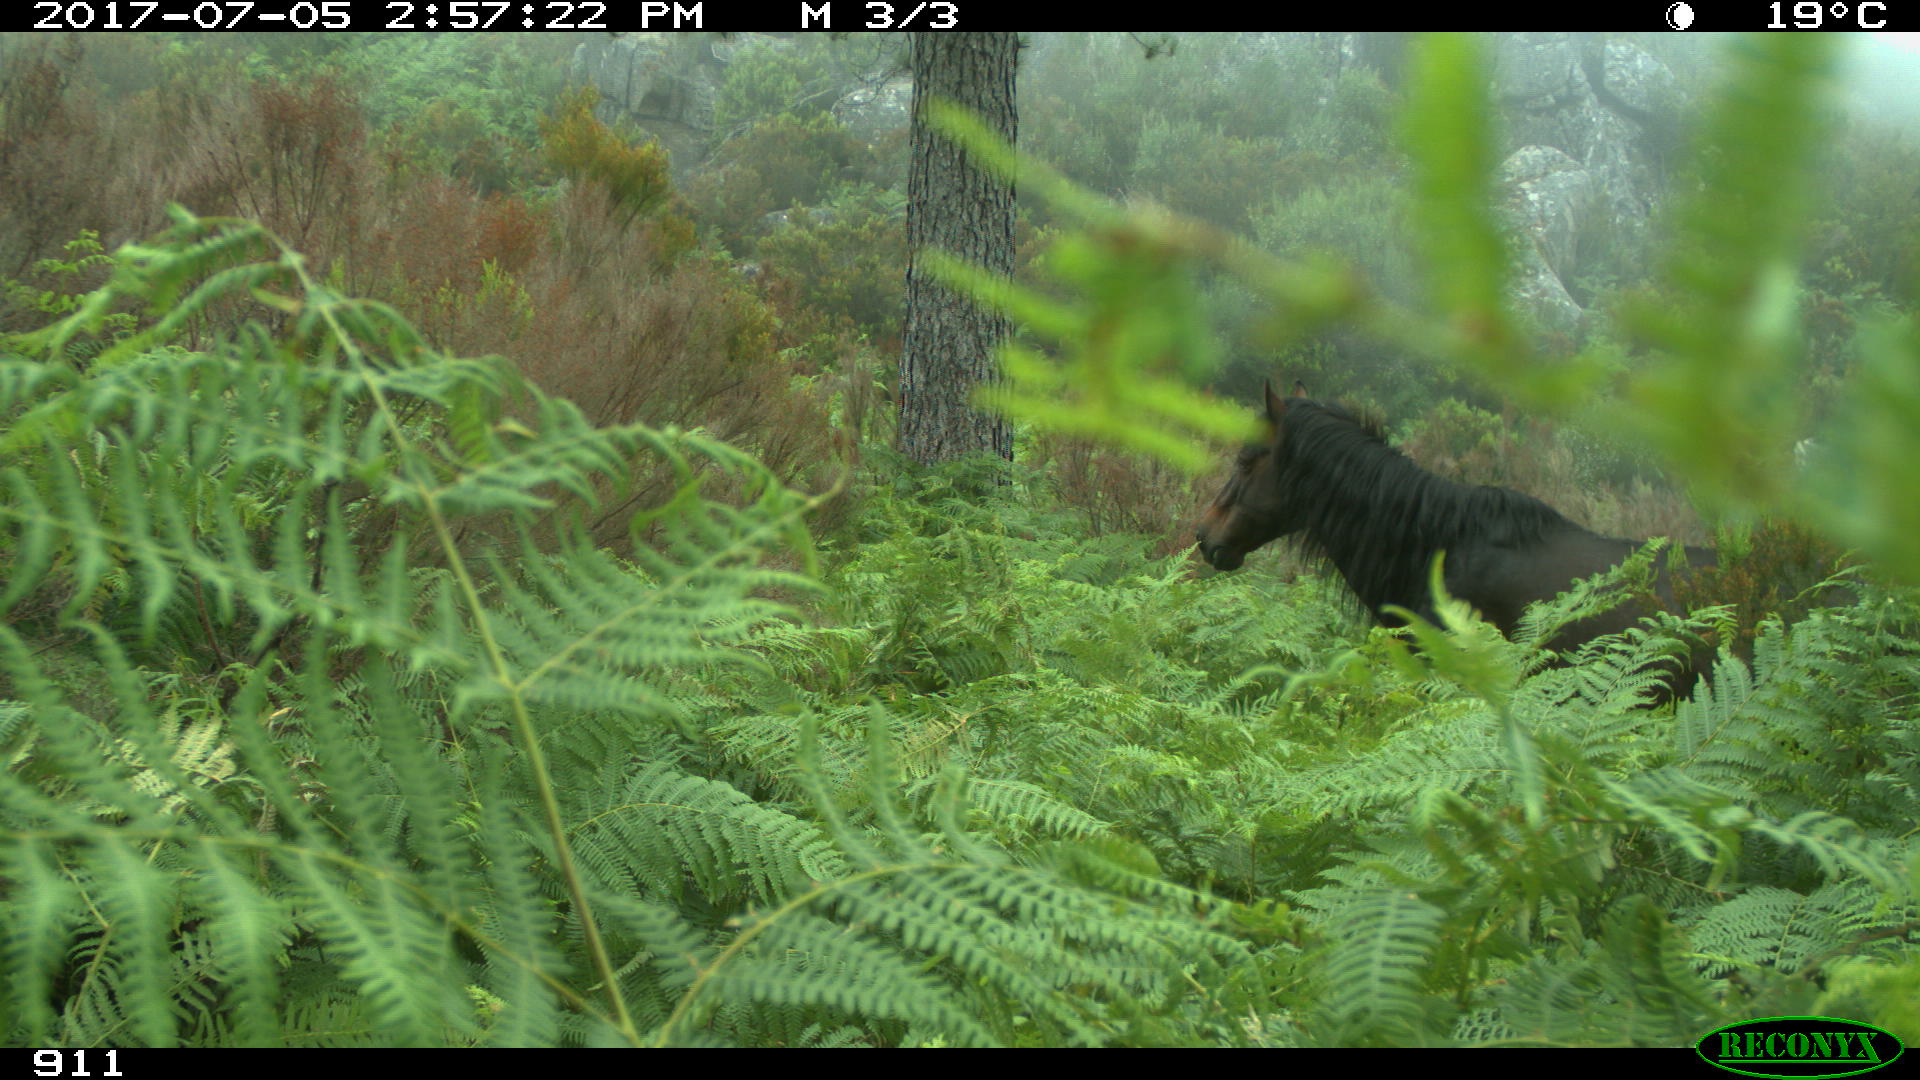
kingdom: Animalia
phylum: Chordata
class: Mammalia
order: Perissodactyla
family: Equidae
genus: Equus
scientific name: Equus caballus
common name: Horse
